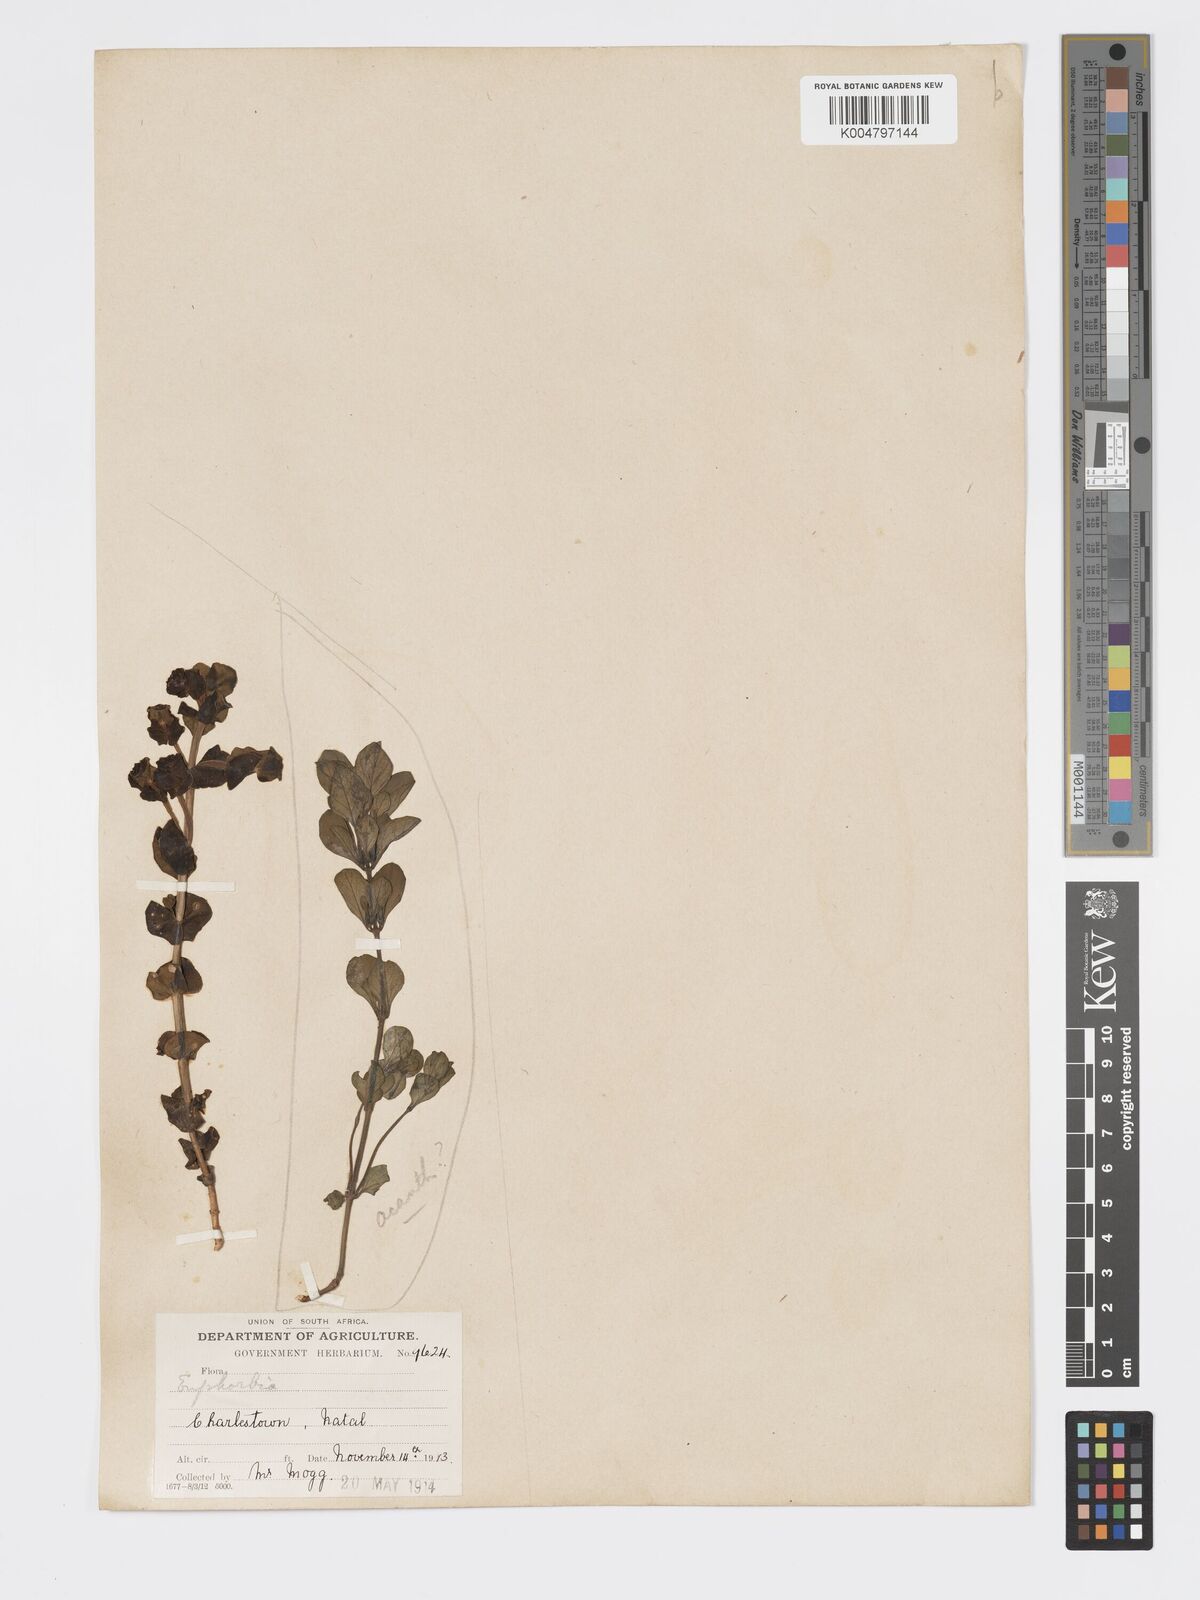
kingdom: Plantae
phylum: Tracheophyta
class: Magnoliopsida
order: Malpighiales
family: Euphorbiaceae
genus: Euphorbia
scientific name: Euphorbia
